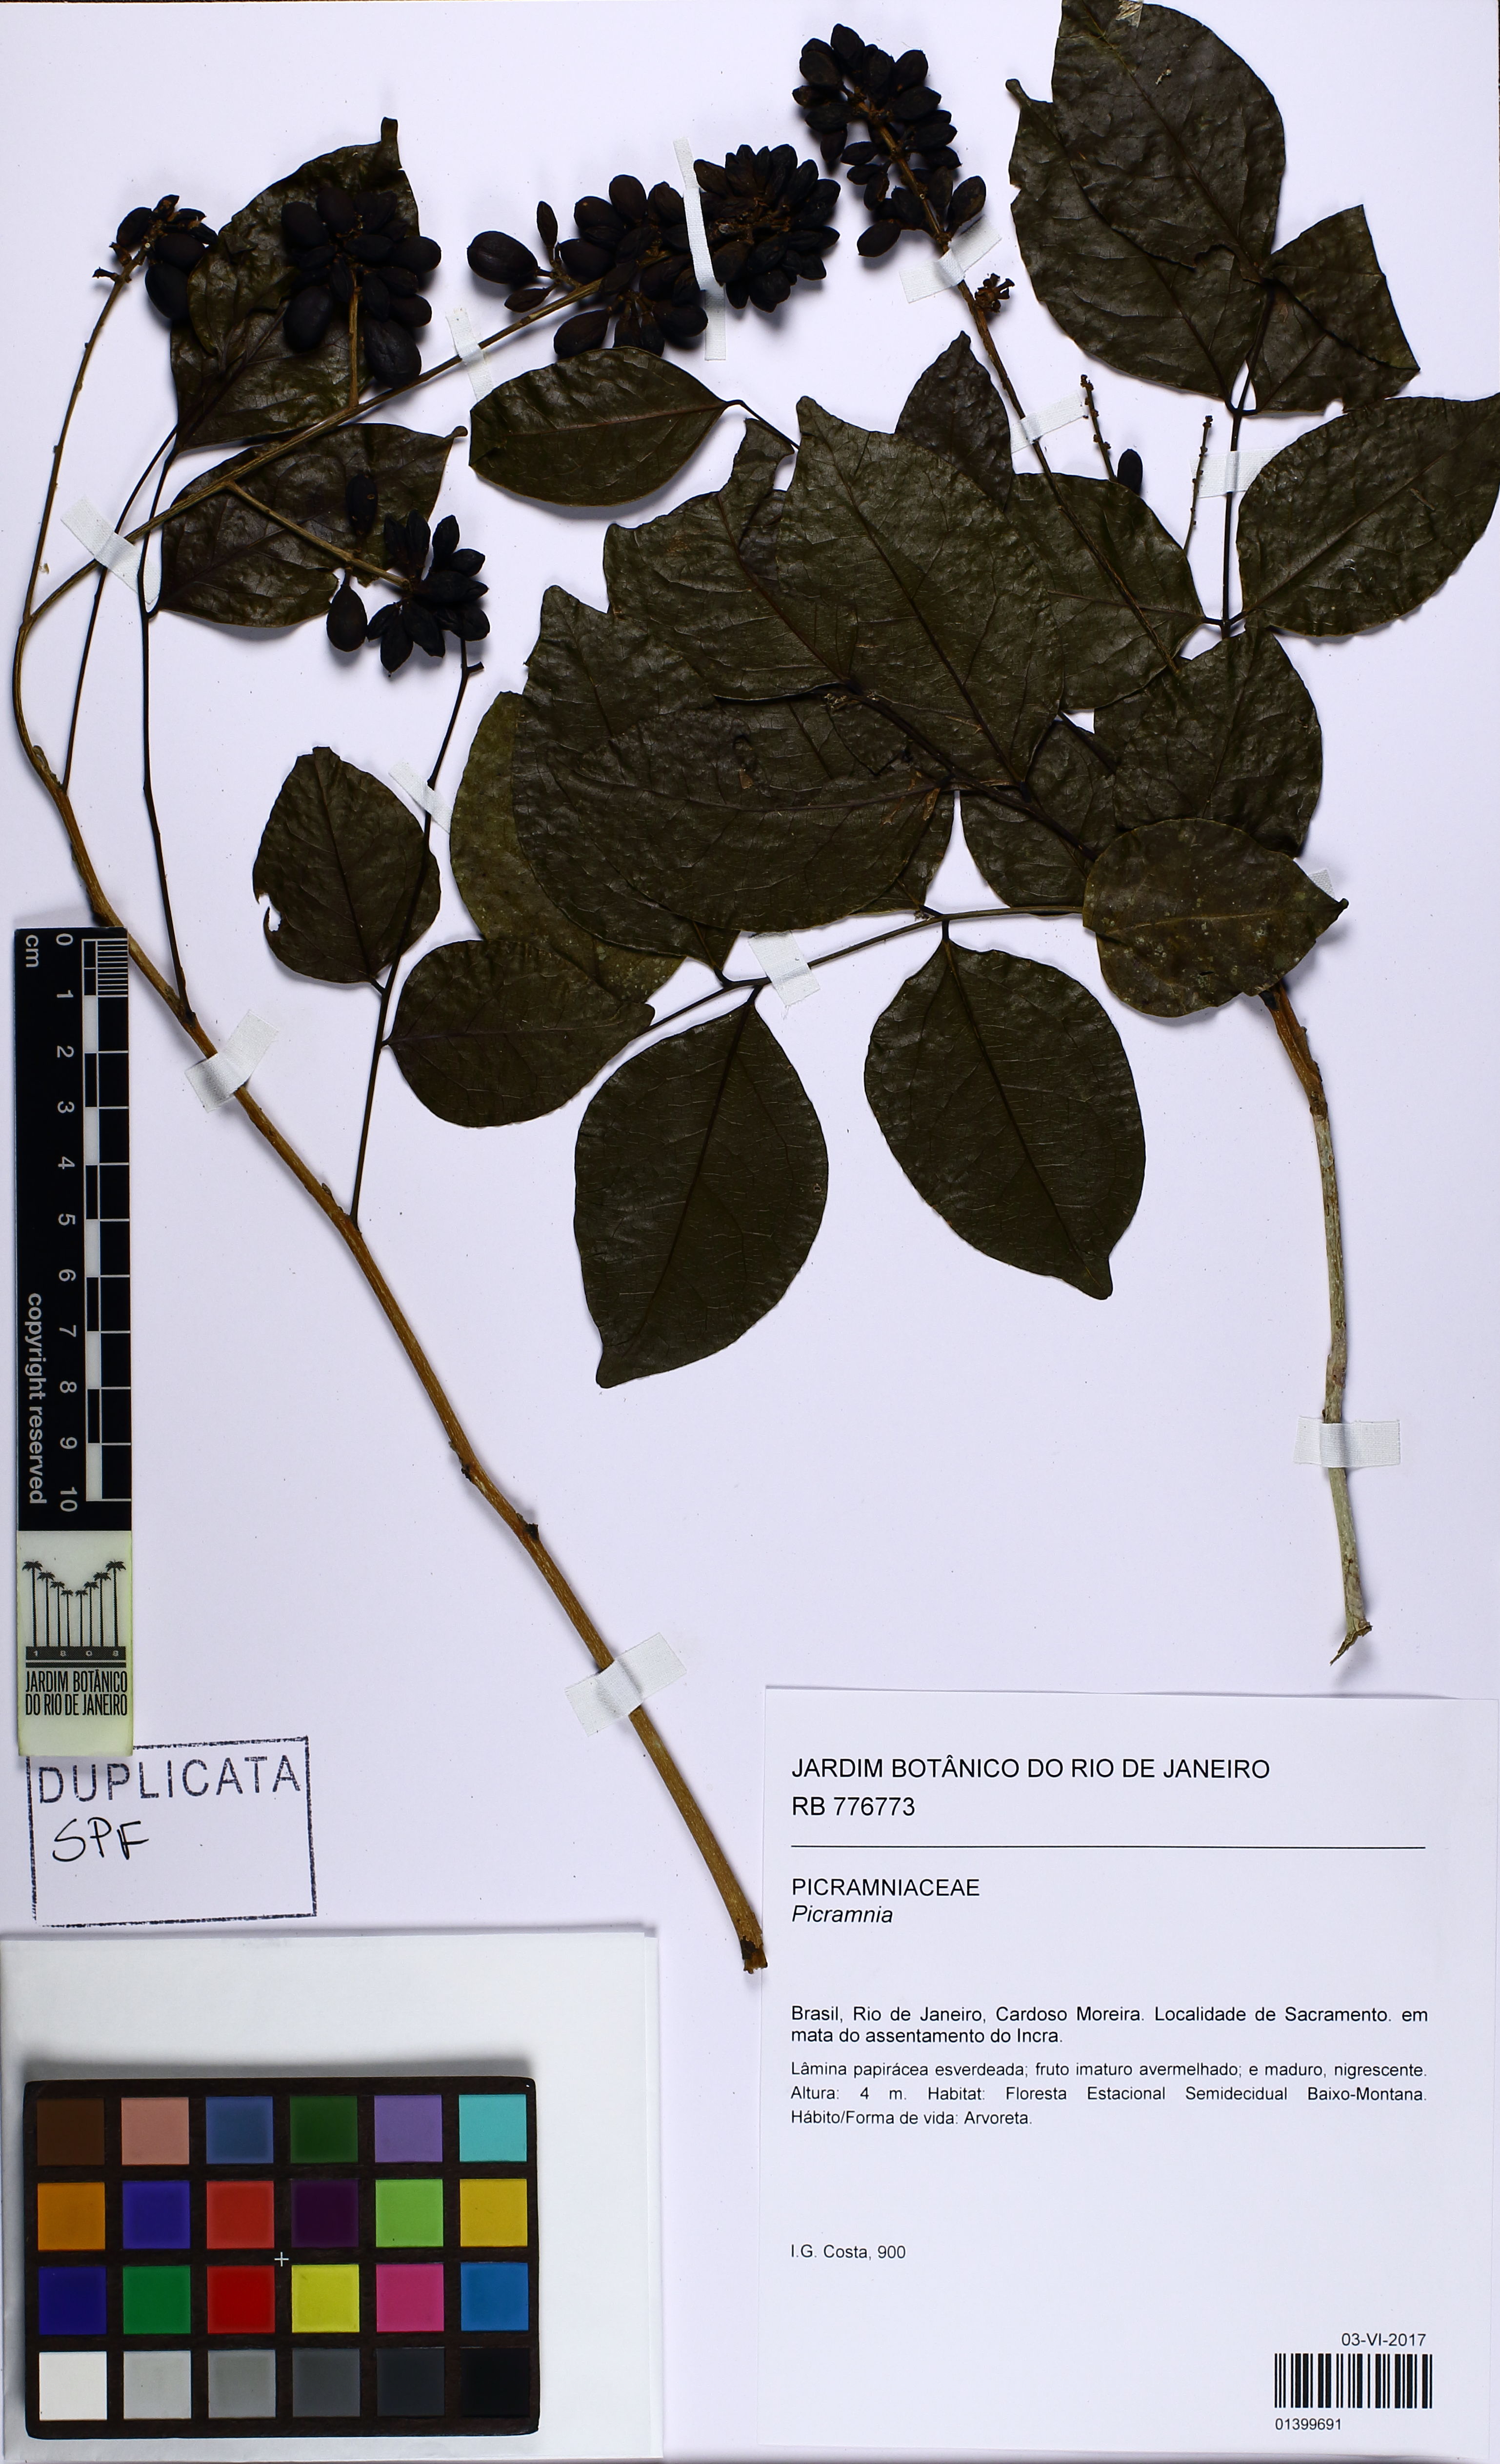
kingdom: Plantae
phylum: Tracheophyta
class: Magnoliopsida
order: Picramniales
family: Picramniaceae
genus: Picramnia
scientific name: Picramnia gardneri
